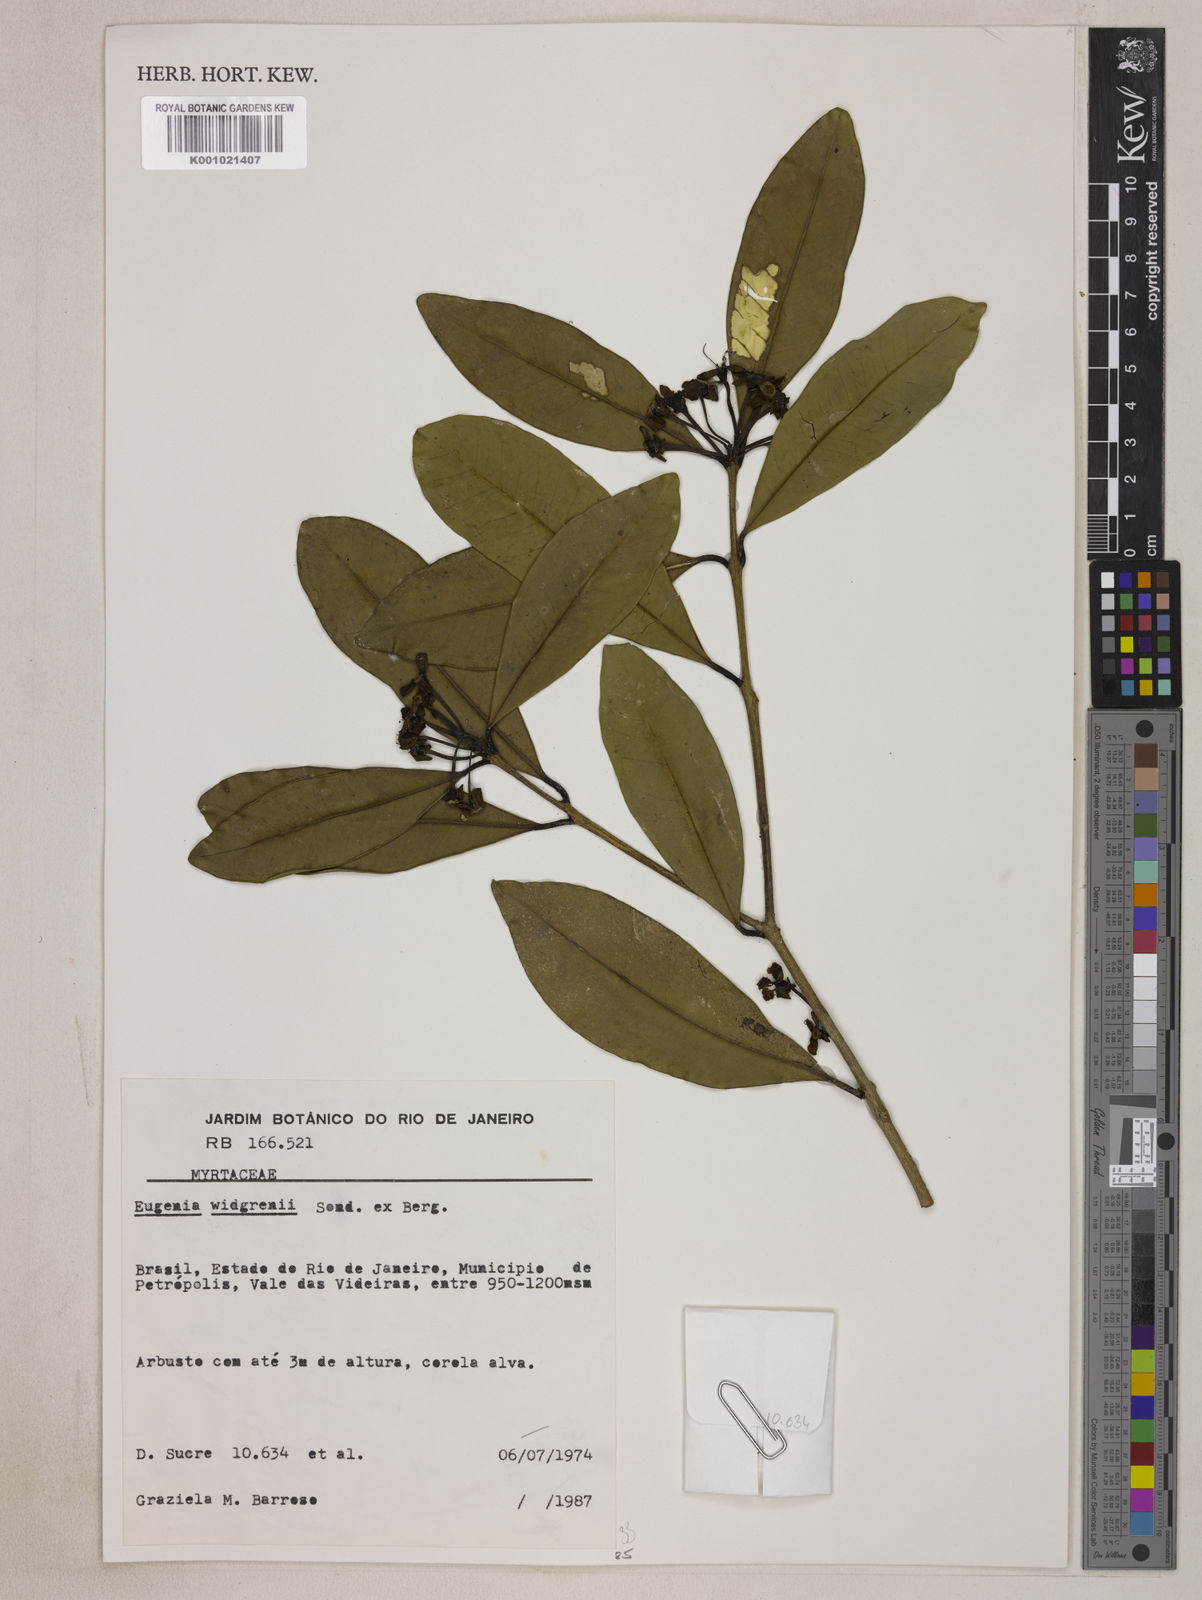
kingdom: Plantae
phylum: Tracheophyta
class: Magnoliopsida
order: Myrtales
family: Myrtaceae
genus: Eugenia
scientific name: Eugenia widgrenii
